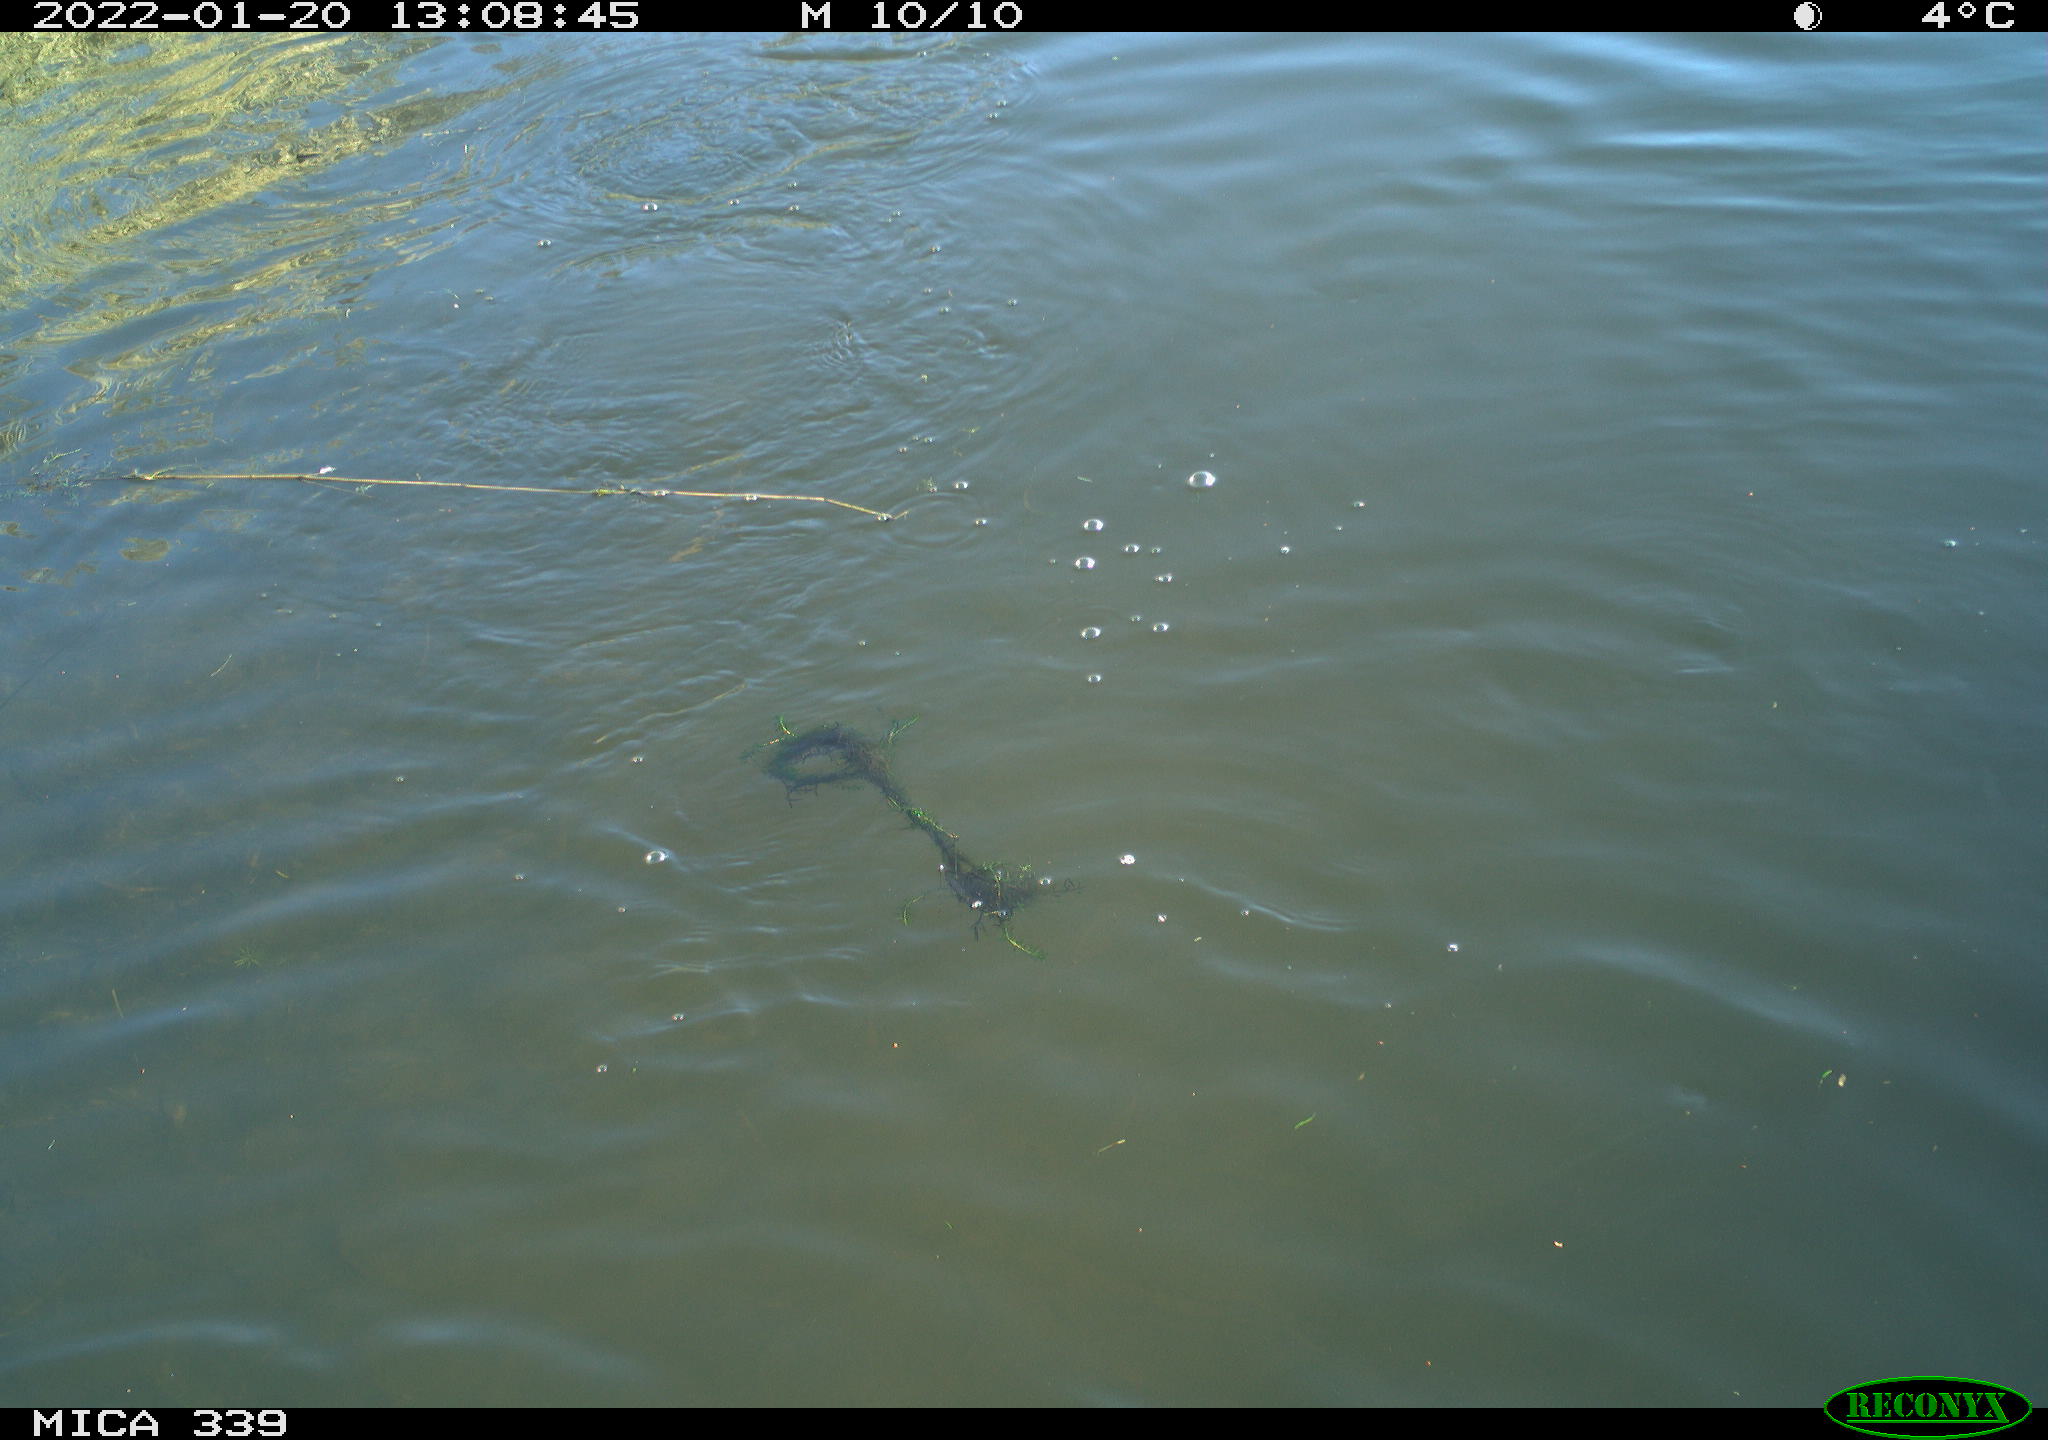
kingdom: Animalia
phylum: Chordata
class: Aves
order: Suliformes
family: Phalacrocoracidae
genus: Phalacrocorax
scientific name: Phalacrocorax carbo
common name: Great cormorant
